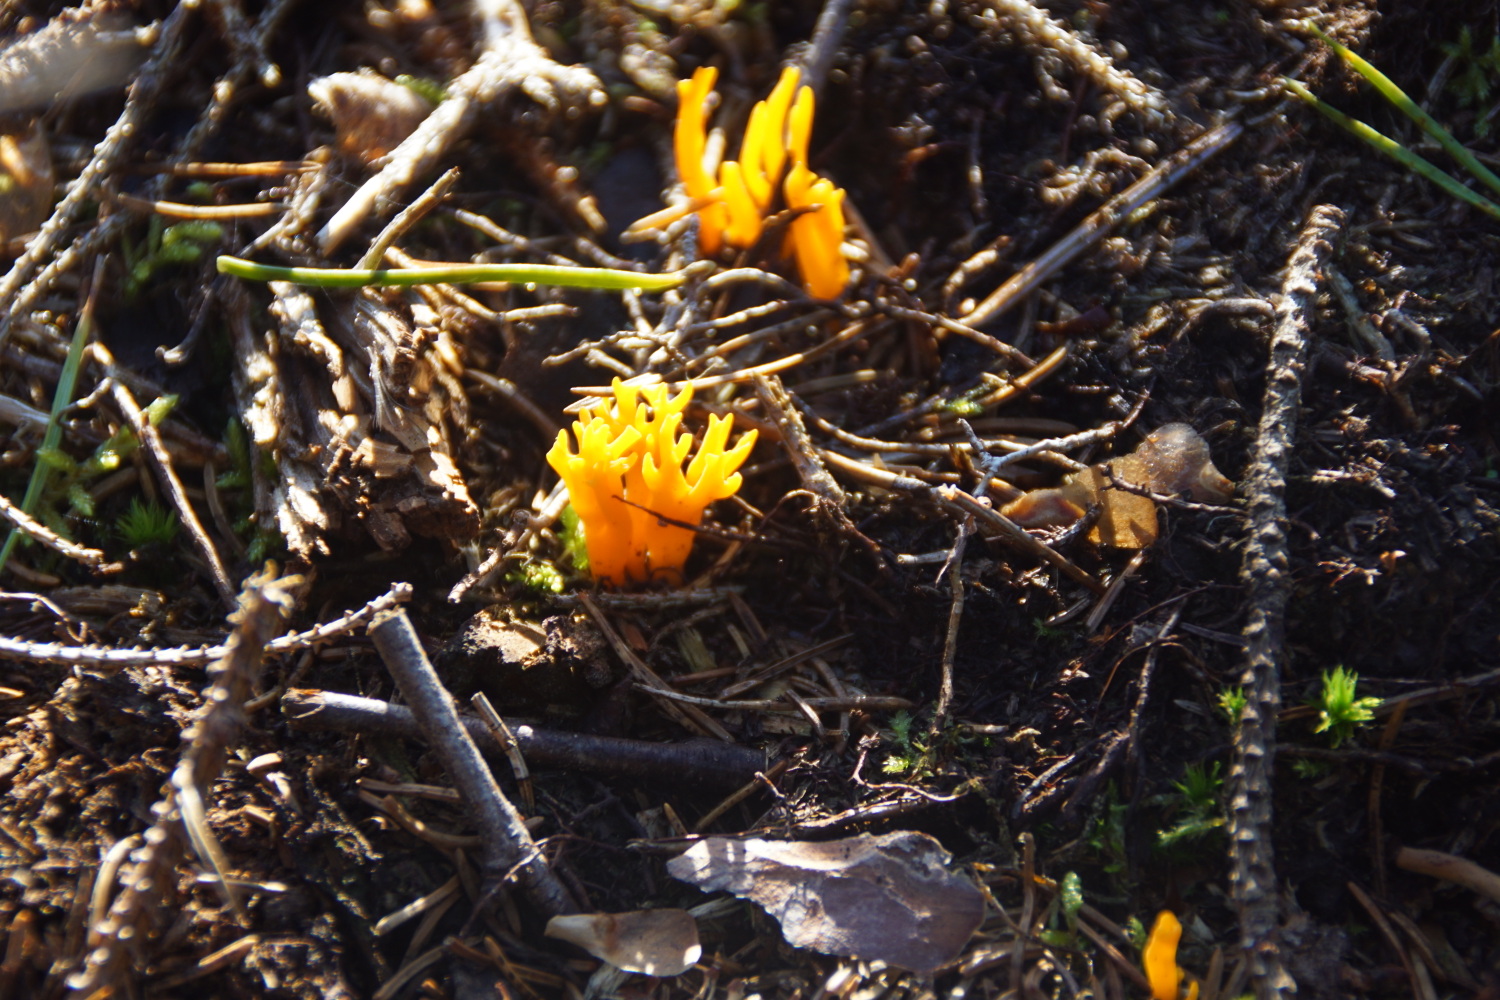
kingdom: Fungi
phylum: Basidiomycota
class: Dacrymycetes
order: Dacrymycetales
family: Dacrymycetaceae
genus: Calocera
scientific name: Calocera viscosa
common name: almindelig guldgaffel
